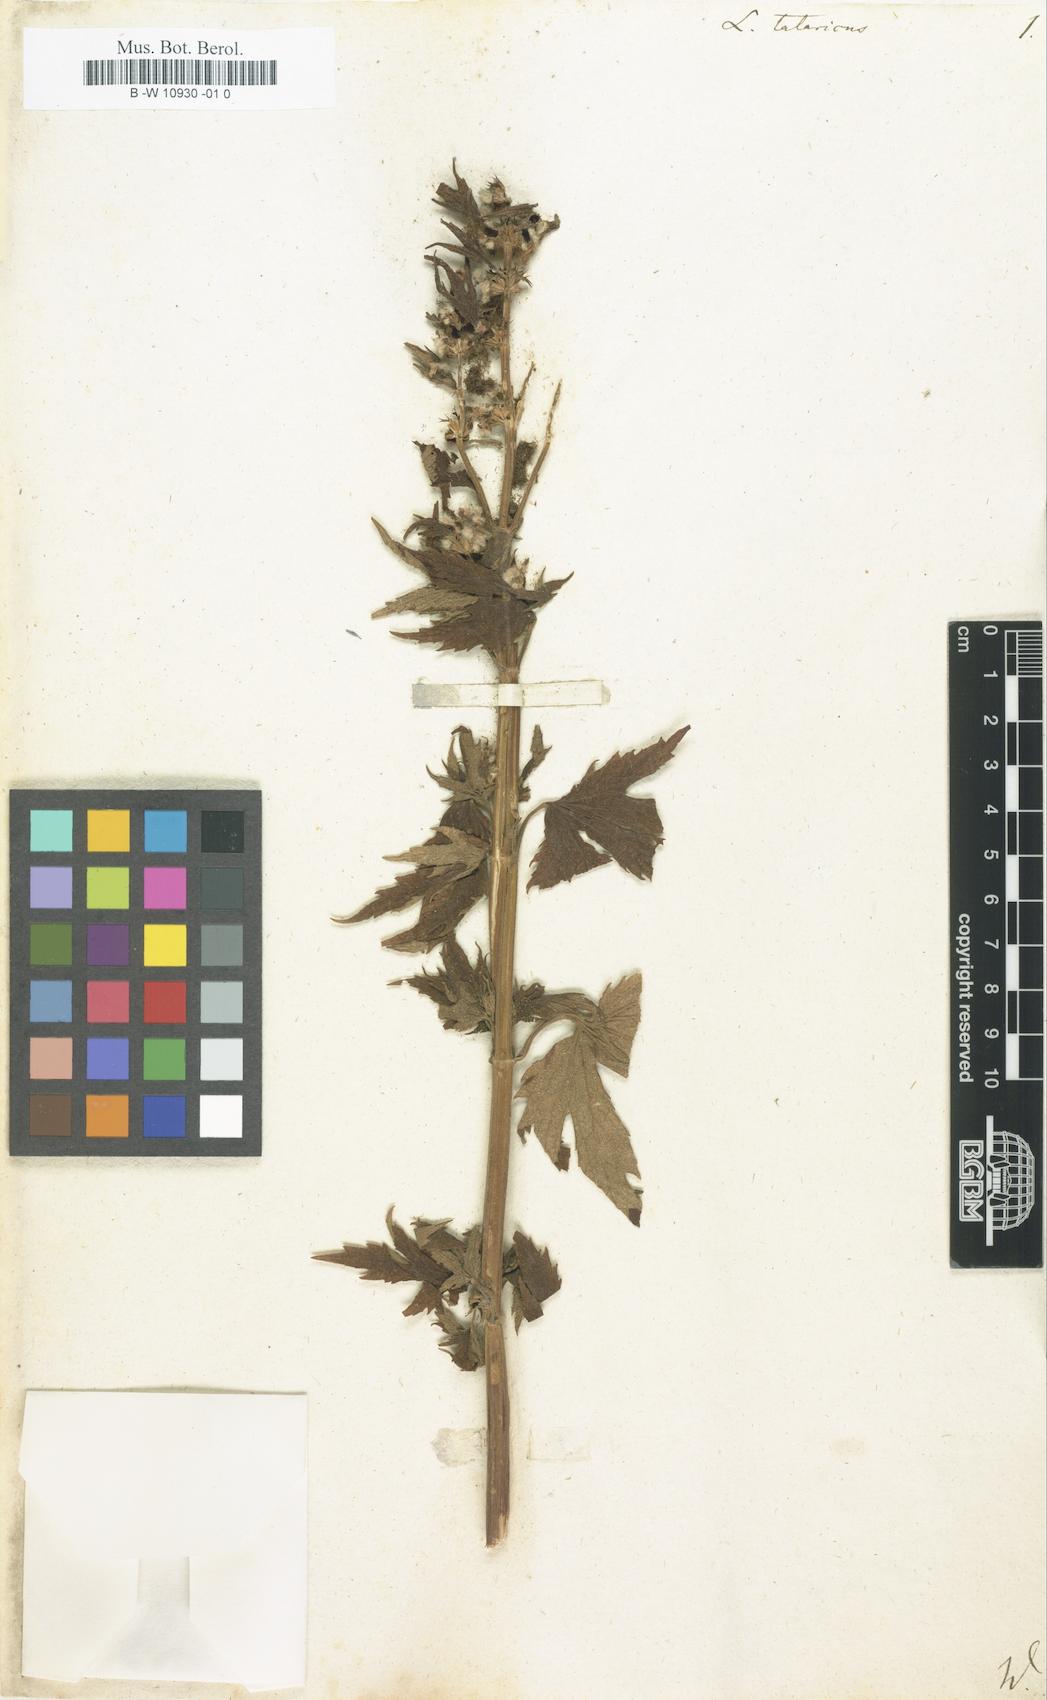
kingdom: Plantae
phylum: Tracheophyta
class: Magnoliopsida
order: Lamiales
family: Lamiaceae
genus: Leonurus
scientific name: Leonurus tataricus
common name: Chinese motherwort
